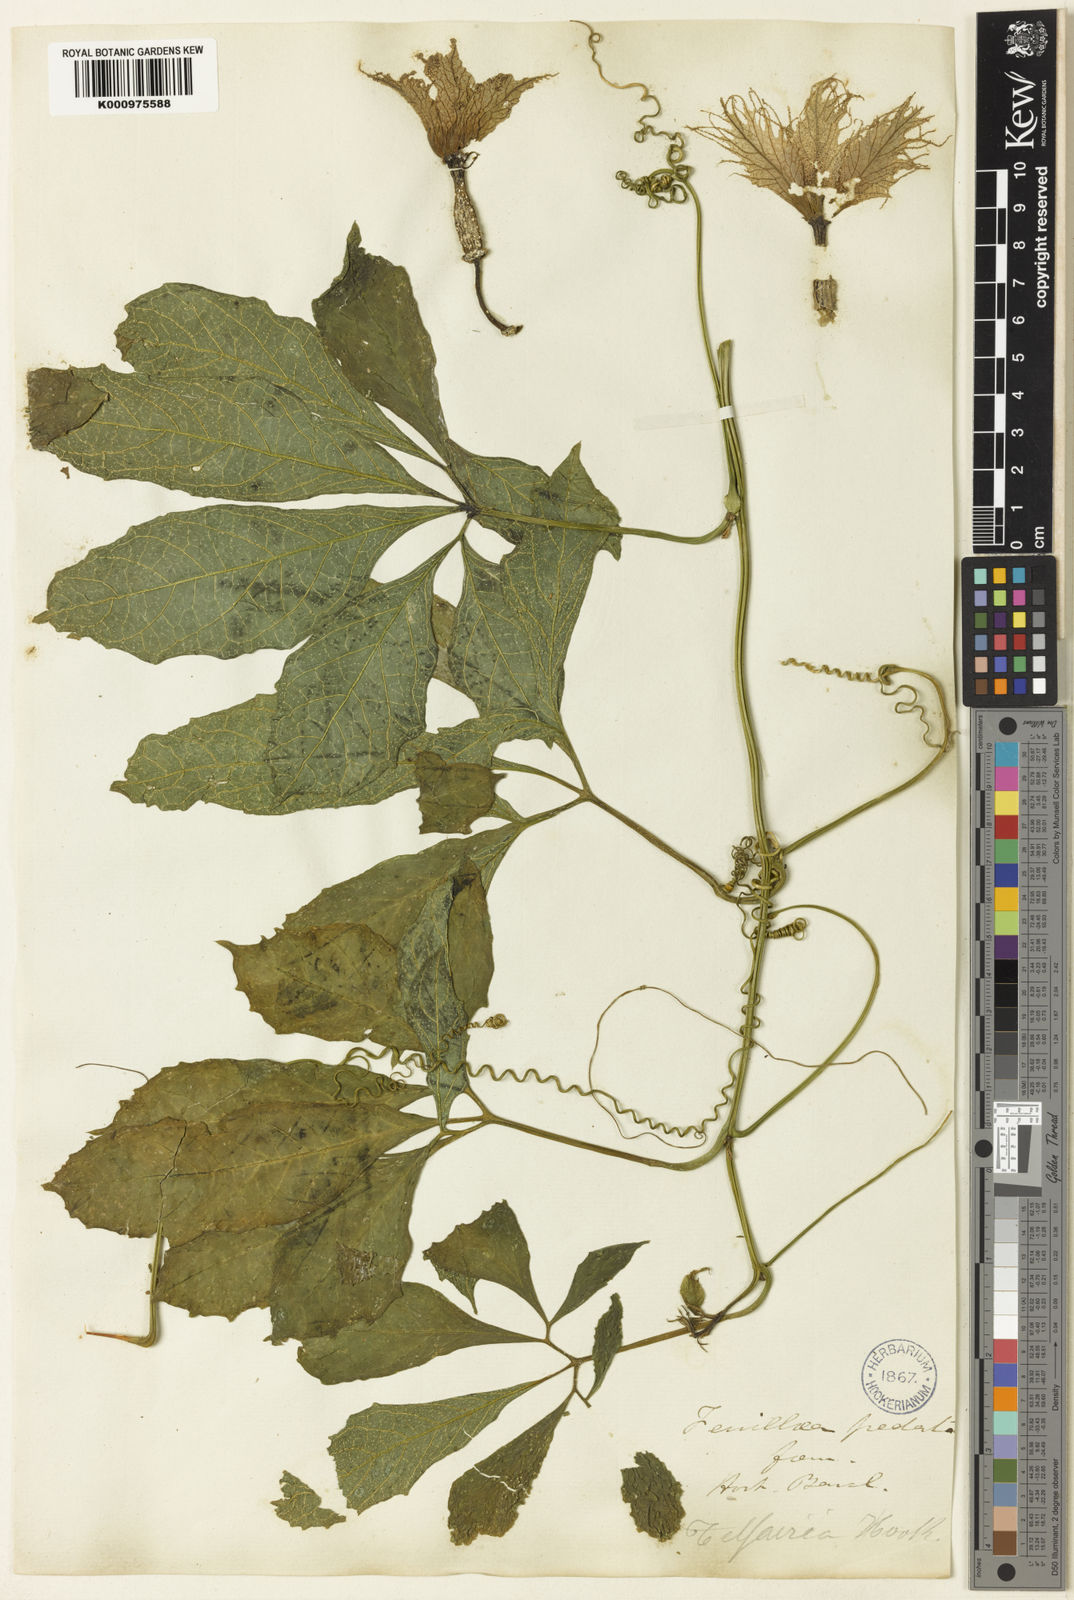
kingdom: Plantae
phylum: Tracheophyta
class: Magnoliopsida
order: Cucurbitales
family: Cucurbitaceae
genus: Telfairia
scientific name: Telfairia pedata
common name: Zanzibar oilvine
